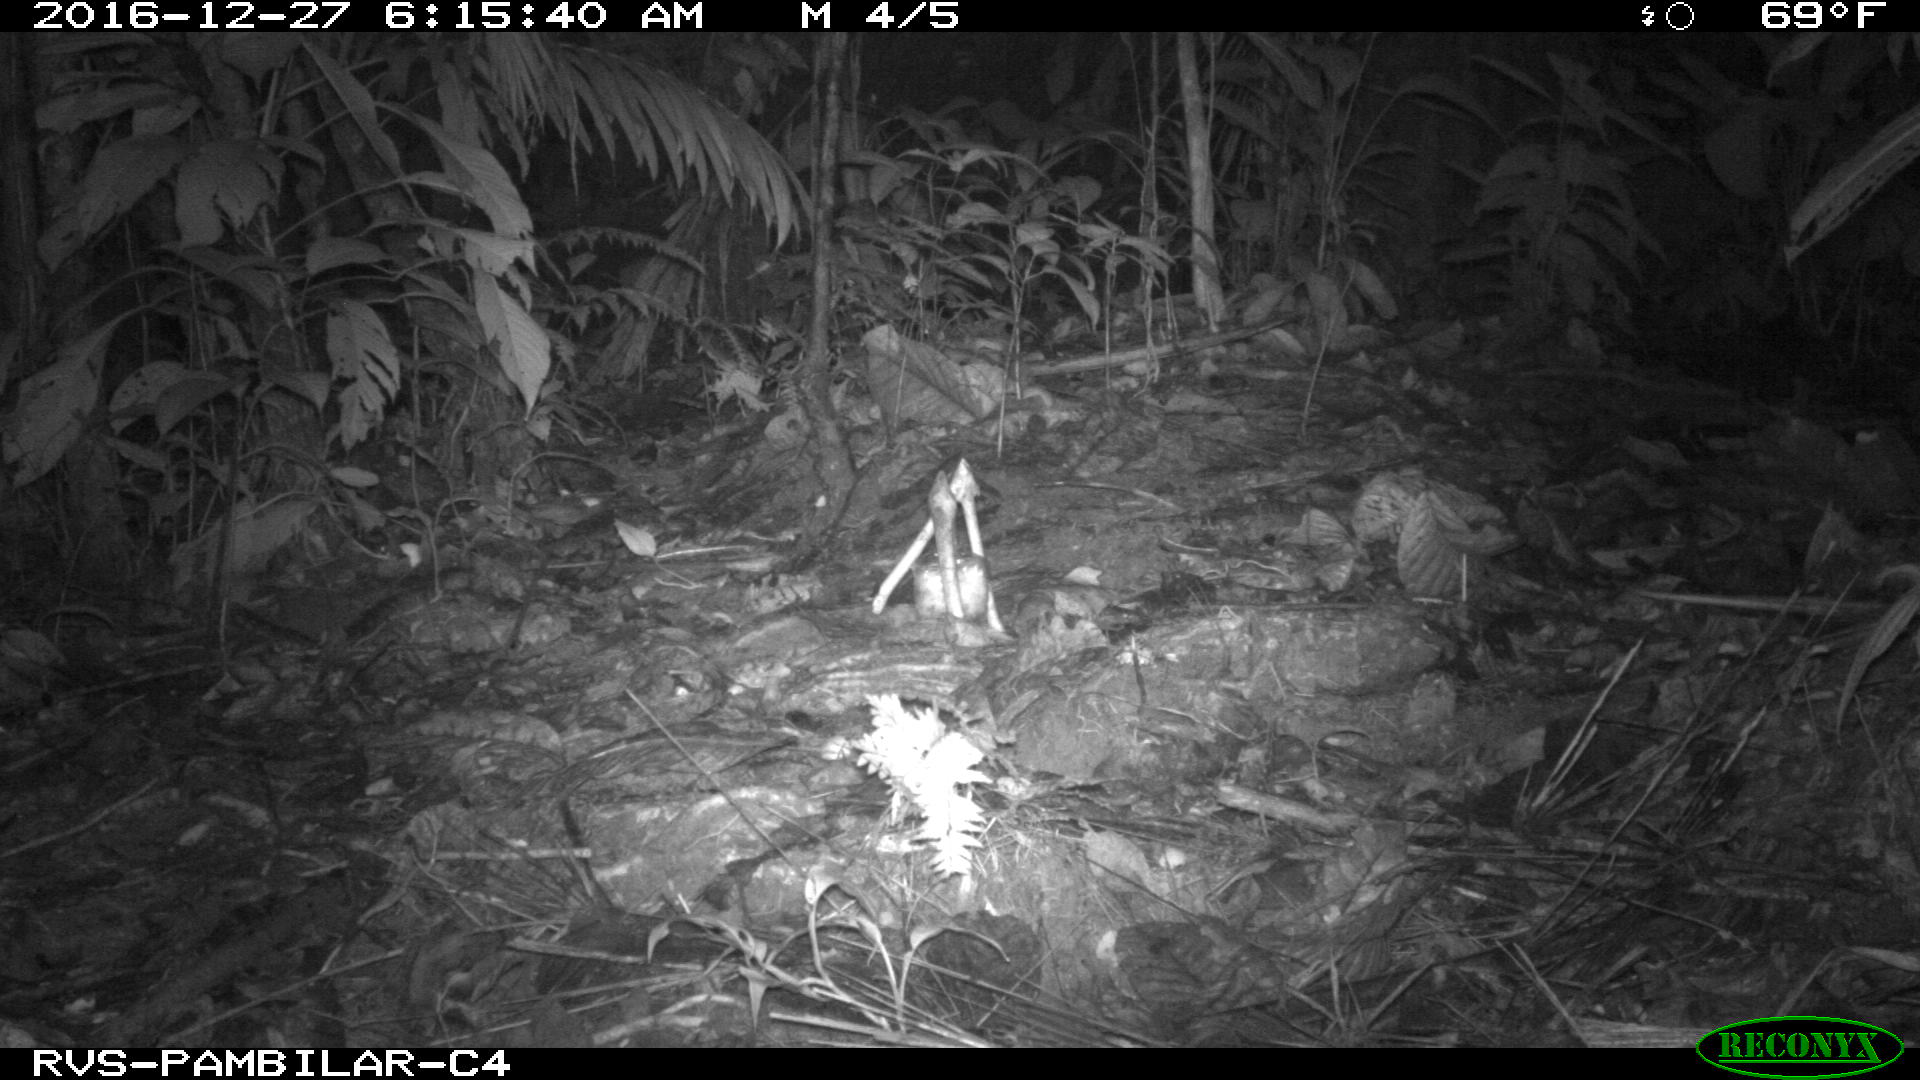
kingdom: Animalia
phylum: Chordata
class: Mammalia
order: Rodentia
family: Dasyproctidae
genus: Dasyprocta
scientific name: Dasyprocta punctata
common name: Central american agouti
